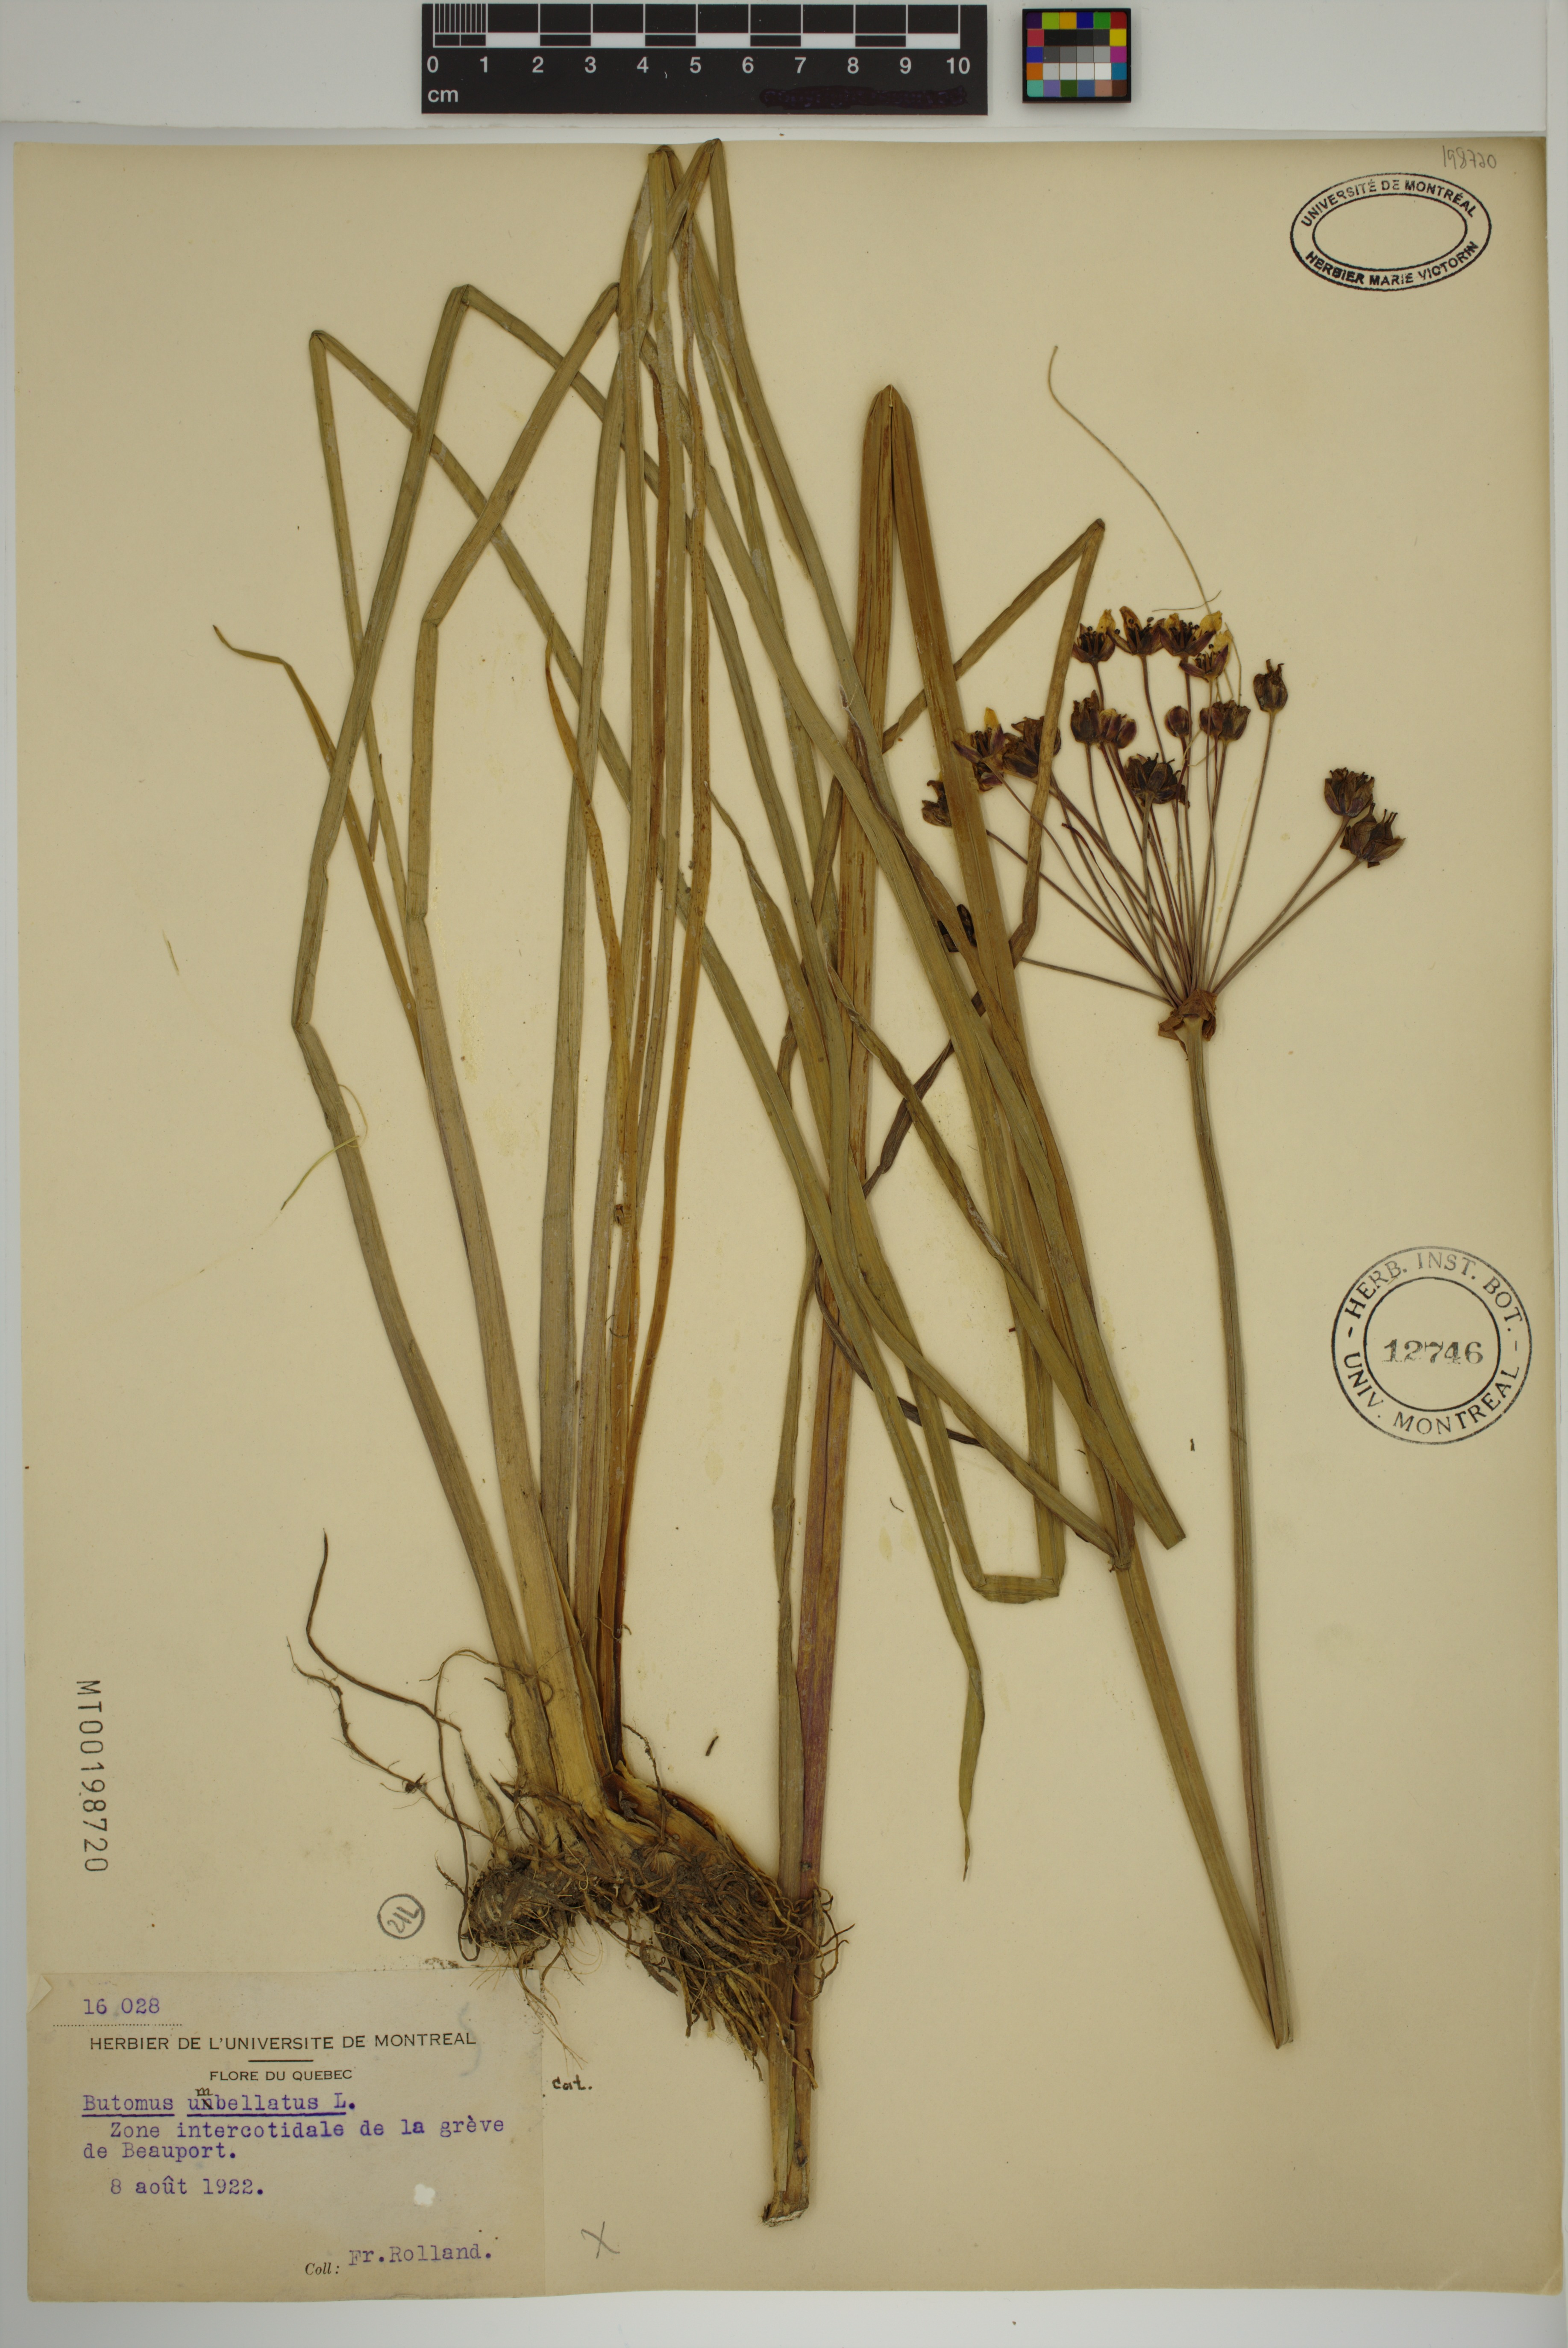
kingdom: Plantae
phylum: Tracheophyta
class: Liliopsida
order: Alismatales
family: Butomaceae
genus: Butomus
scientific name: Butomus umbellatus
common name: Flowering-rush
